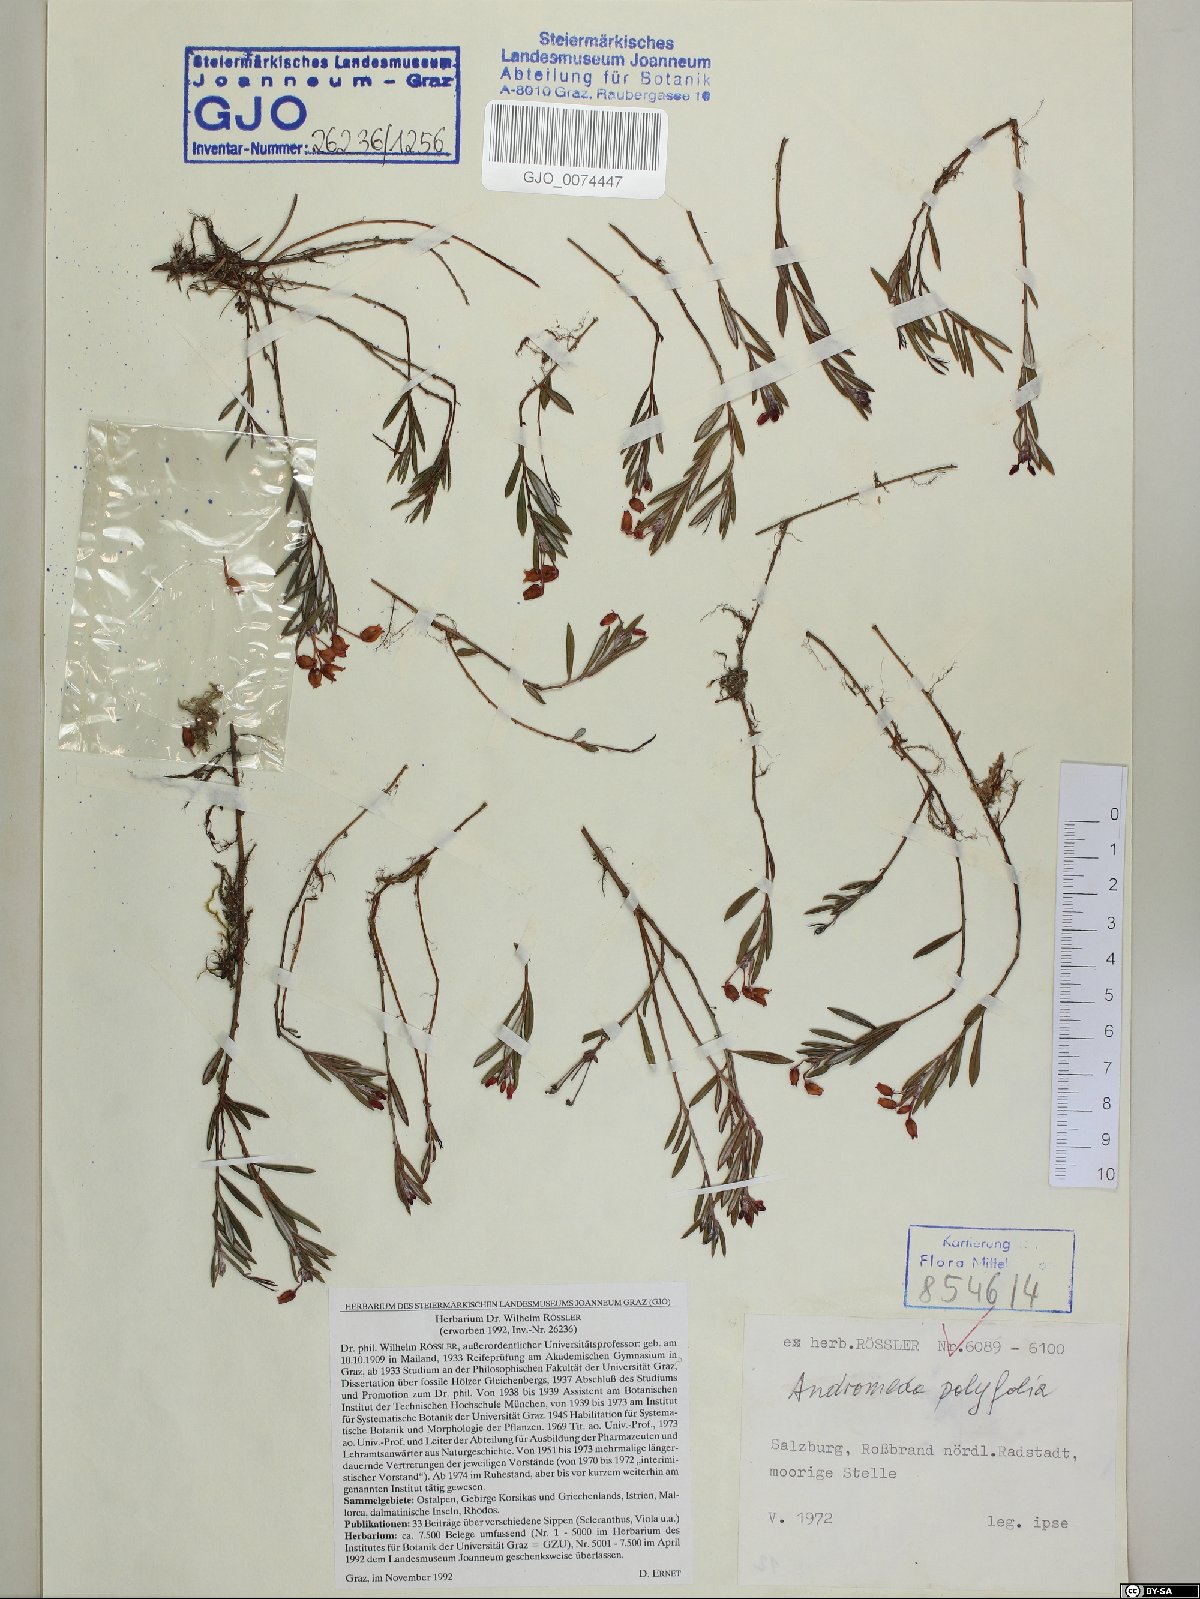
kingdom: Plantae
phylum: Tracheophyta
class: Magnoliopsida
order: Ericales
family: Ericaceae
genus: Andromeda
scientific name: Andromeda polifolia
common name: Bog-rosemary
